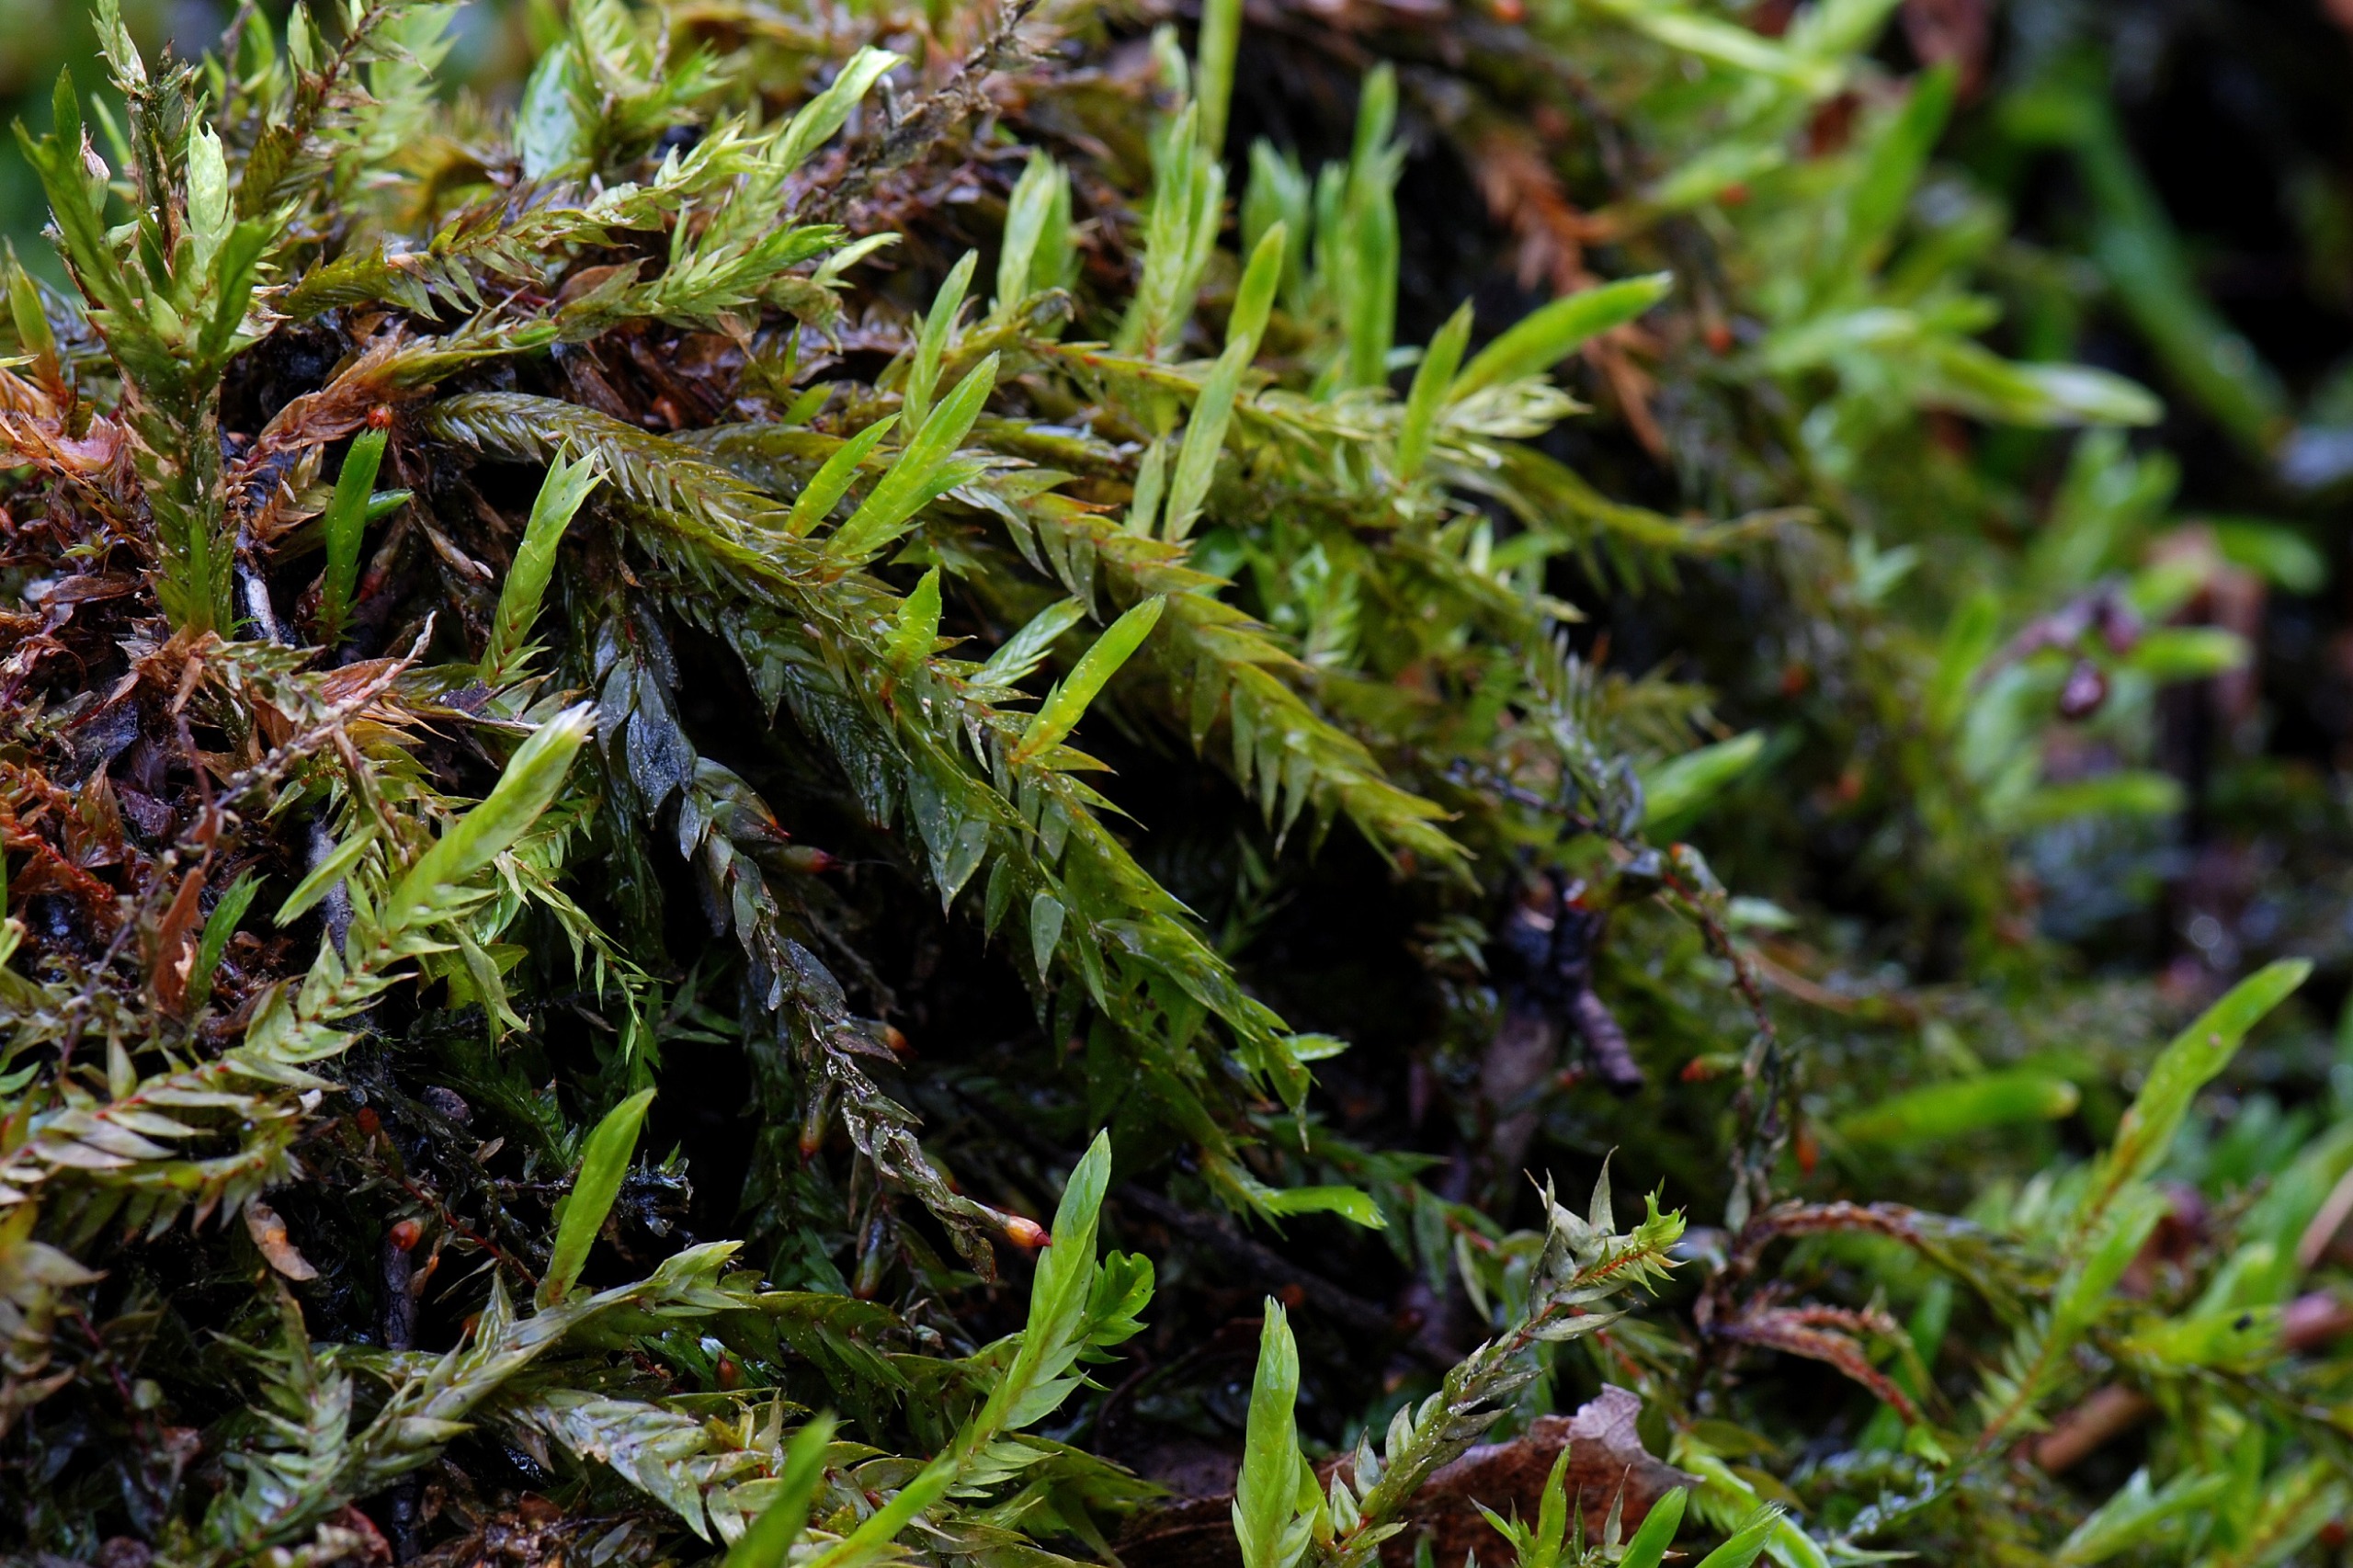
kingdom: Plantae
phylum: Bryophyta
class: Bryopsida
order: Hypnales
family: Fontinalaceae
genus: Fontinalis
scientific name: Fontinalis antipyretica
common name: Stor kildemos
